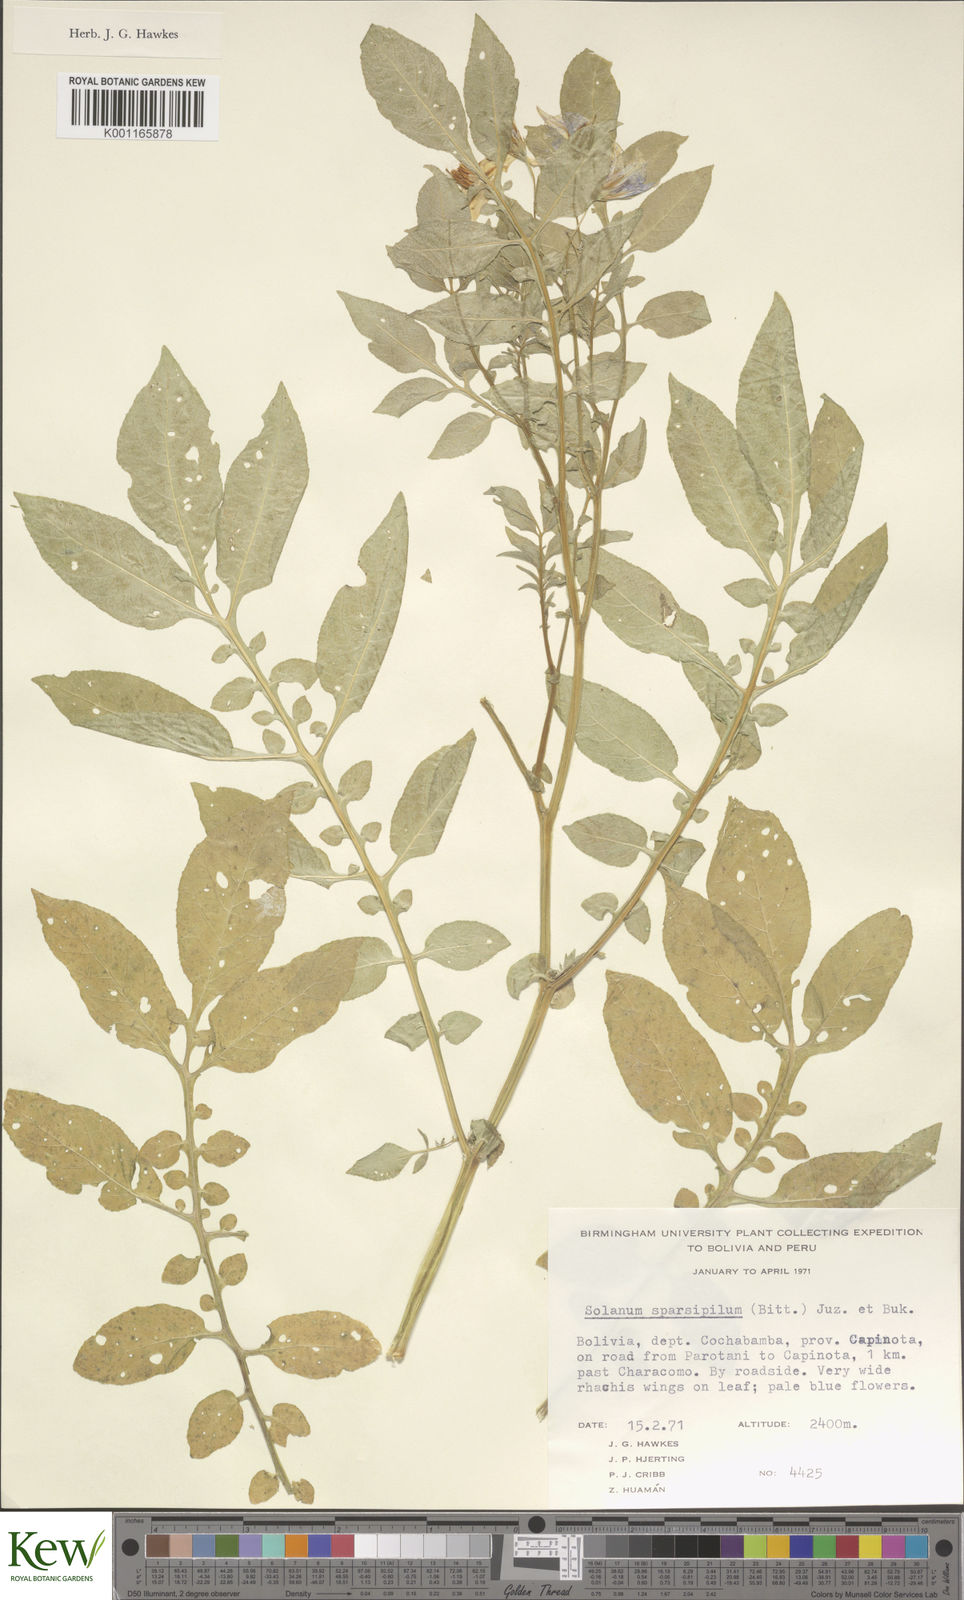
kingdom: Plantae
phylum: Tracheophyta
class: Magnoliopsida
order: Solanales
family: Solanaceae
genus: Solanum
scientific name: Solanum brevicaule
